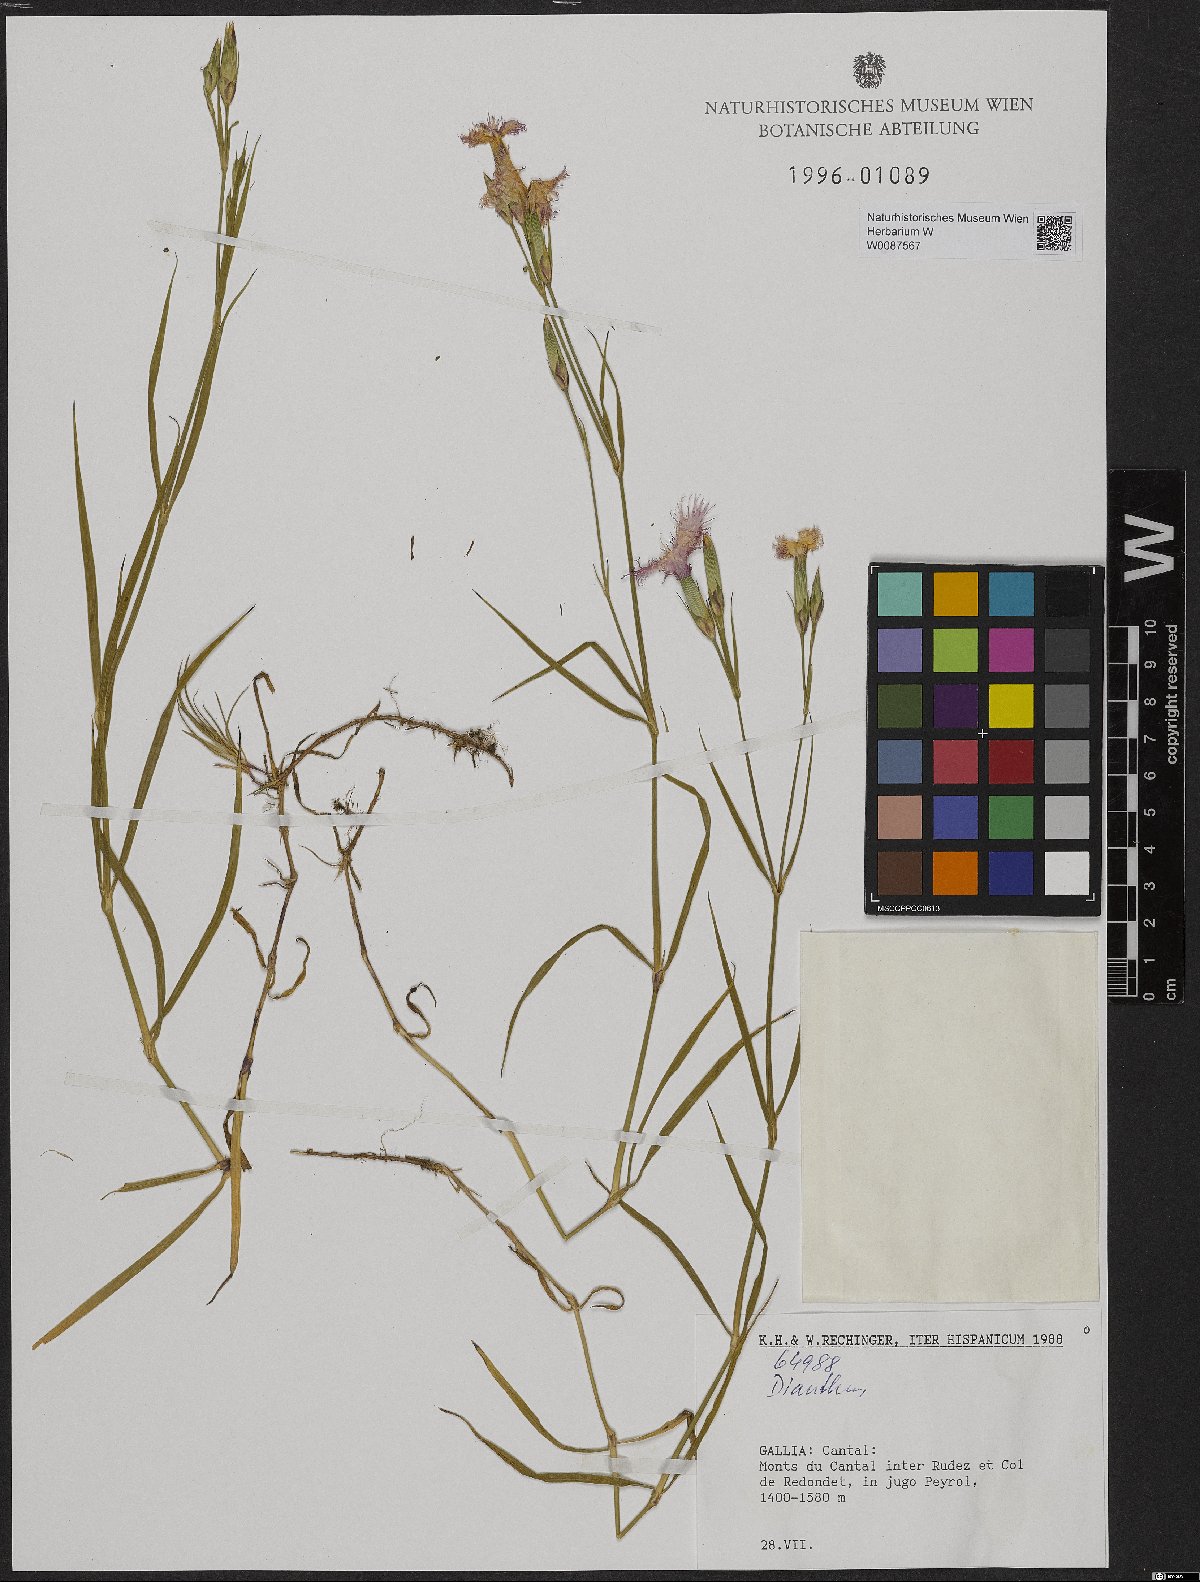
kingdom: Plantae
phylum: Tracheophyta
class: Magnoliopsida
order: Caryophyllales
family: Caryophyllaceae
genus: Dianthus
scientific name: Dianthus
